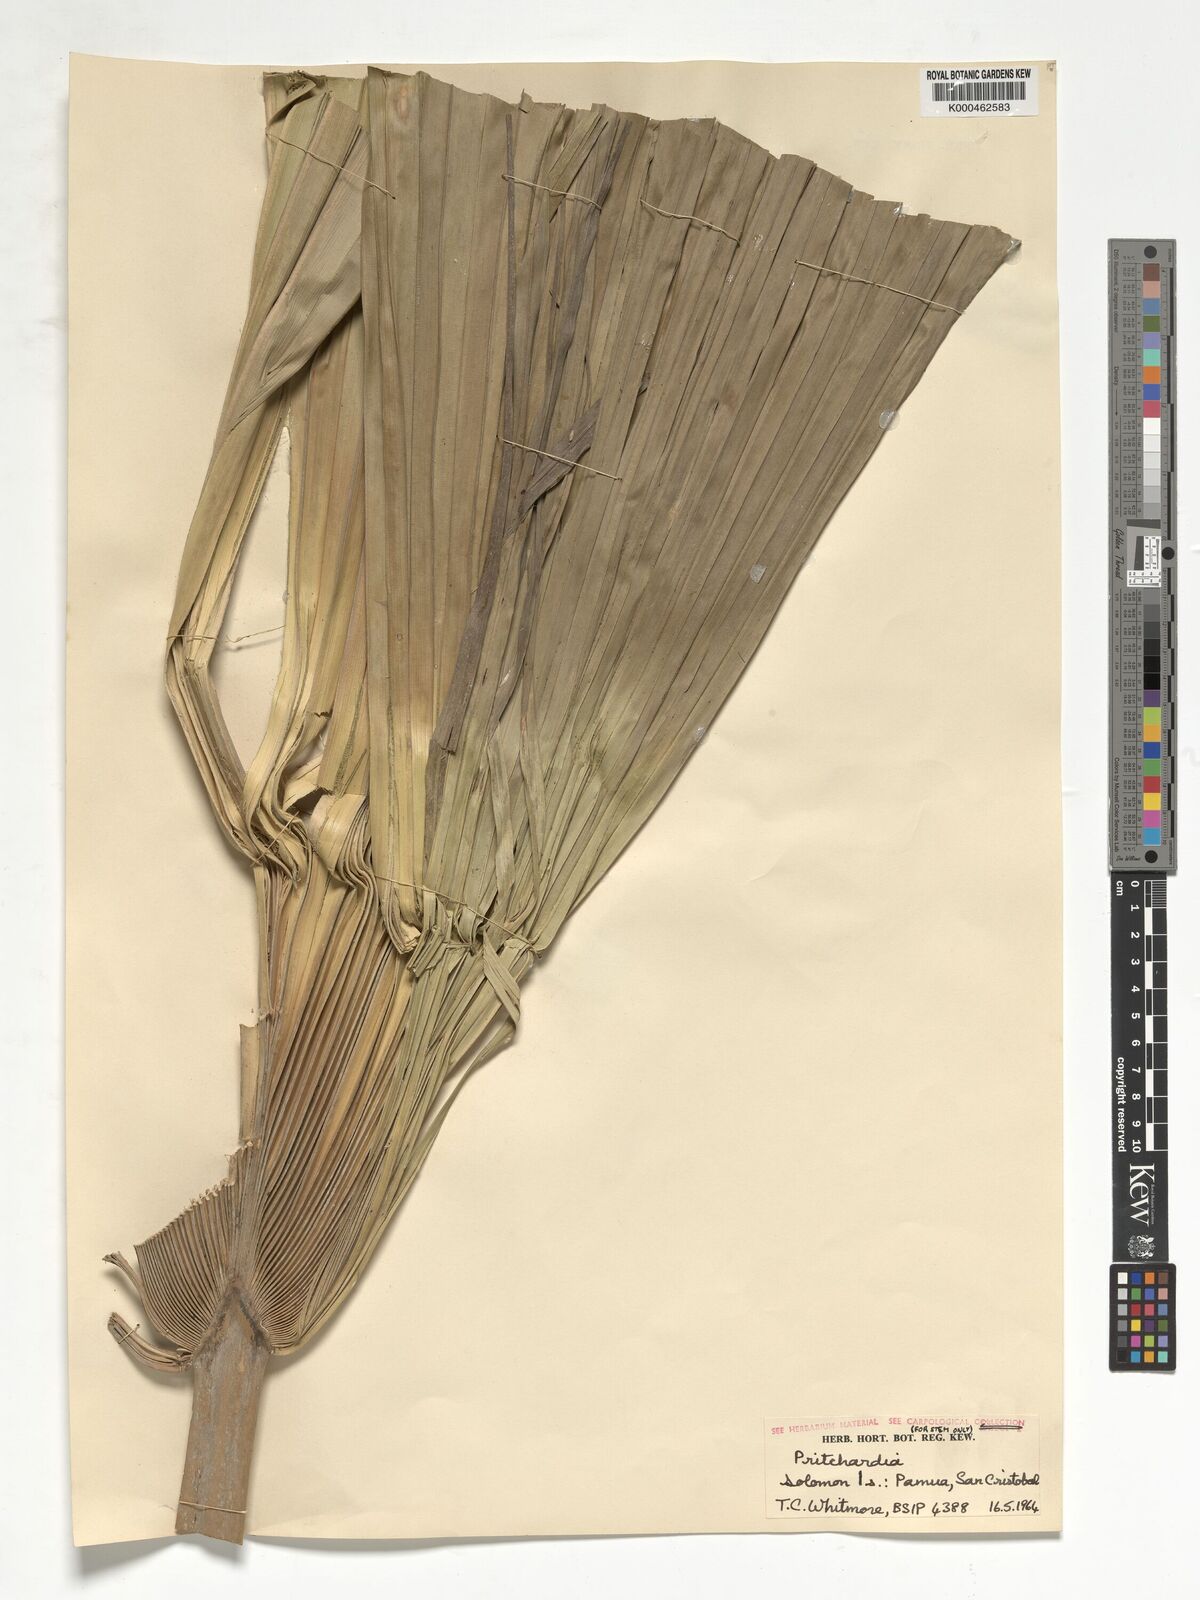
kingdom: Plantae
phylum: Tracheophyta
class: Liliopsida
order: Arecales
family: Arecaceae
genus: Pritchardia
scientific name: Pritchardia pacifica
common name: Fiji fan palm
